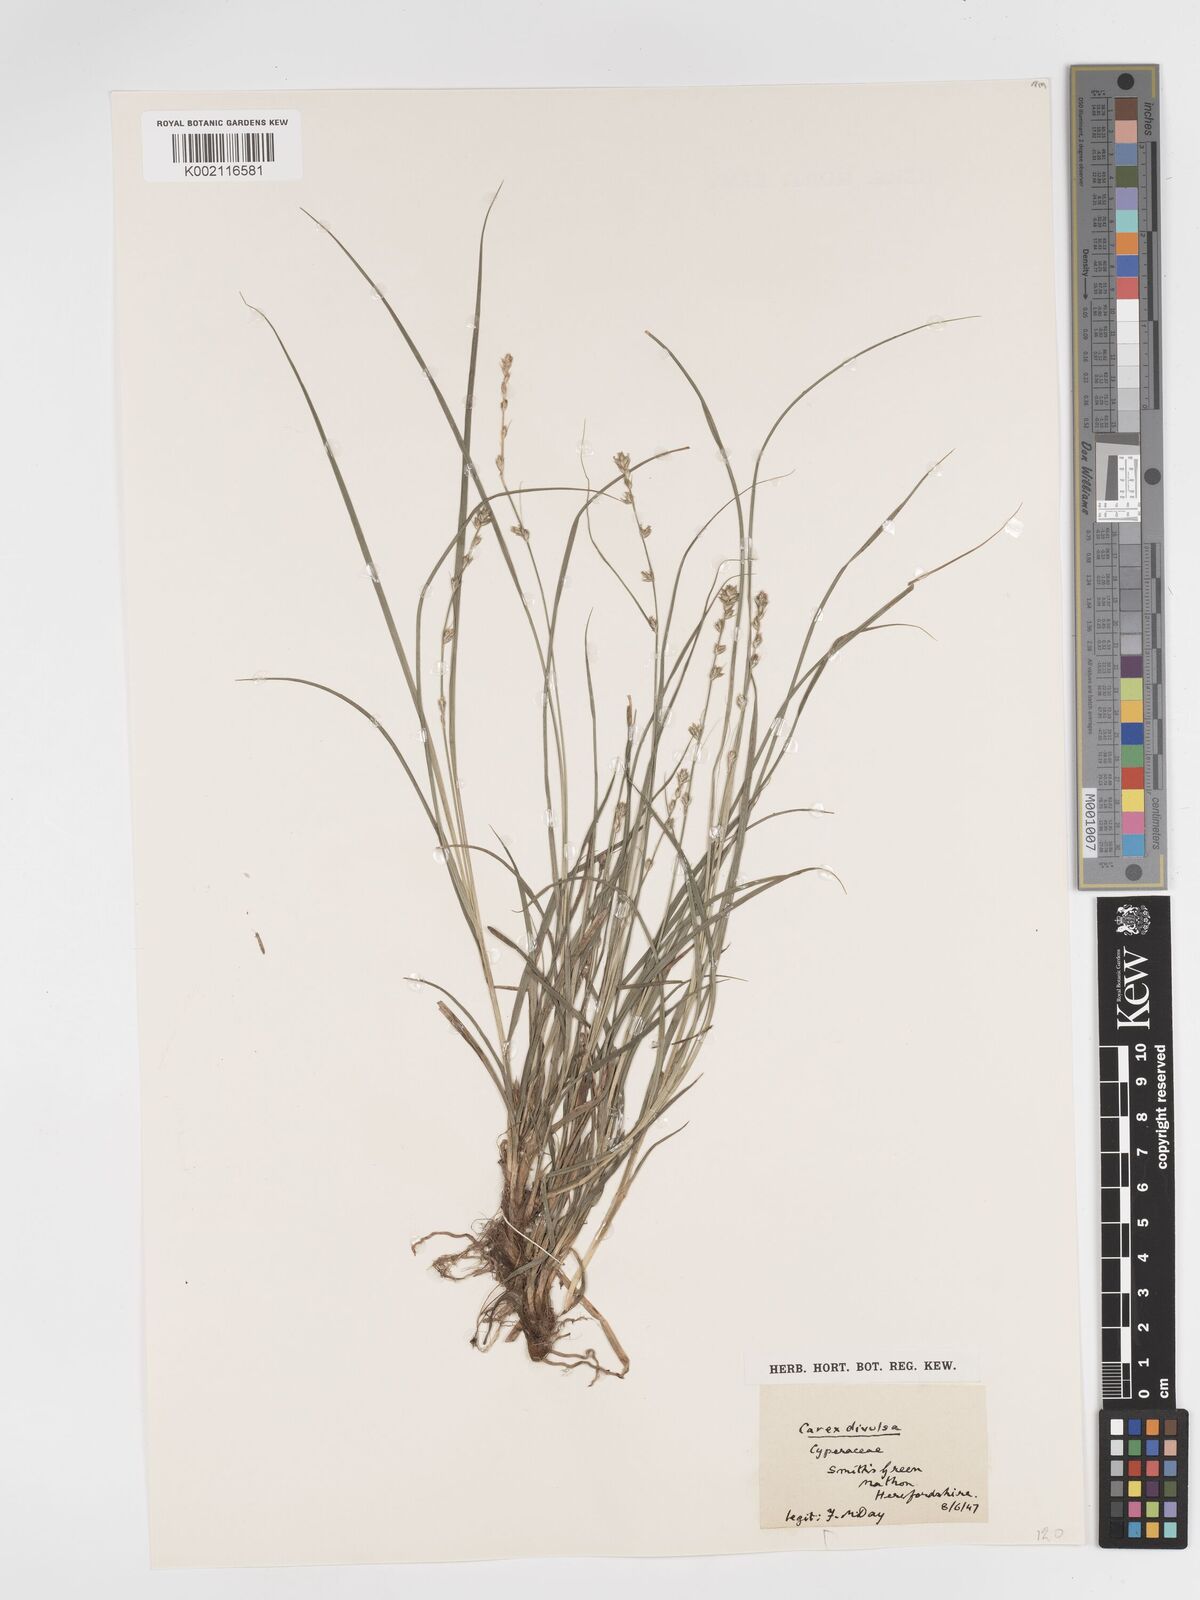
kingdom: Plantae
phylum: Tracheophyta
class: Liliopsida
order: Poales
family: Cyperaceae
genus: Carex
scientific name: Carex divulsa
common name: Grassland sedge
